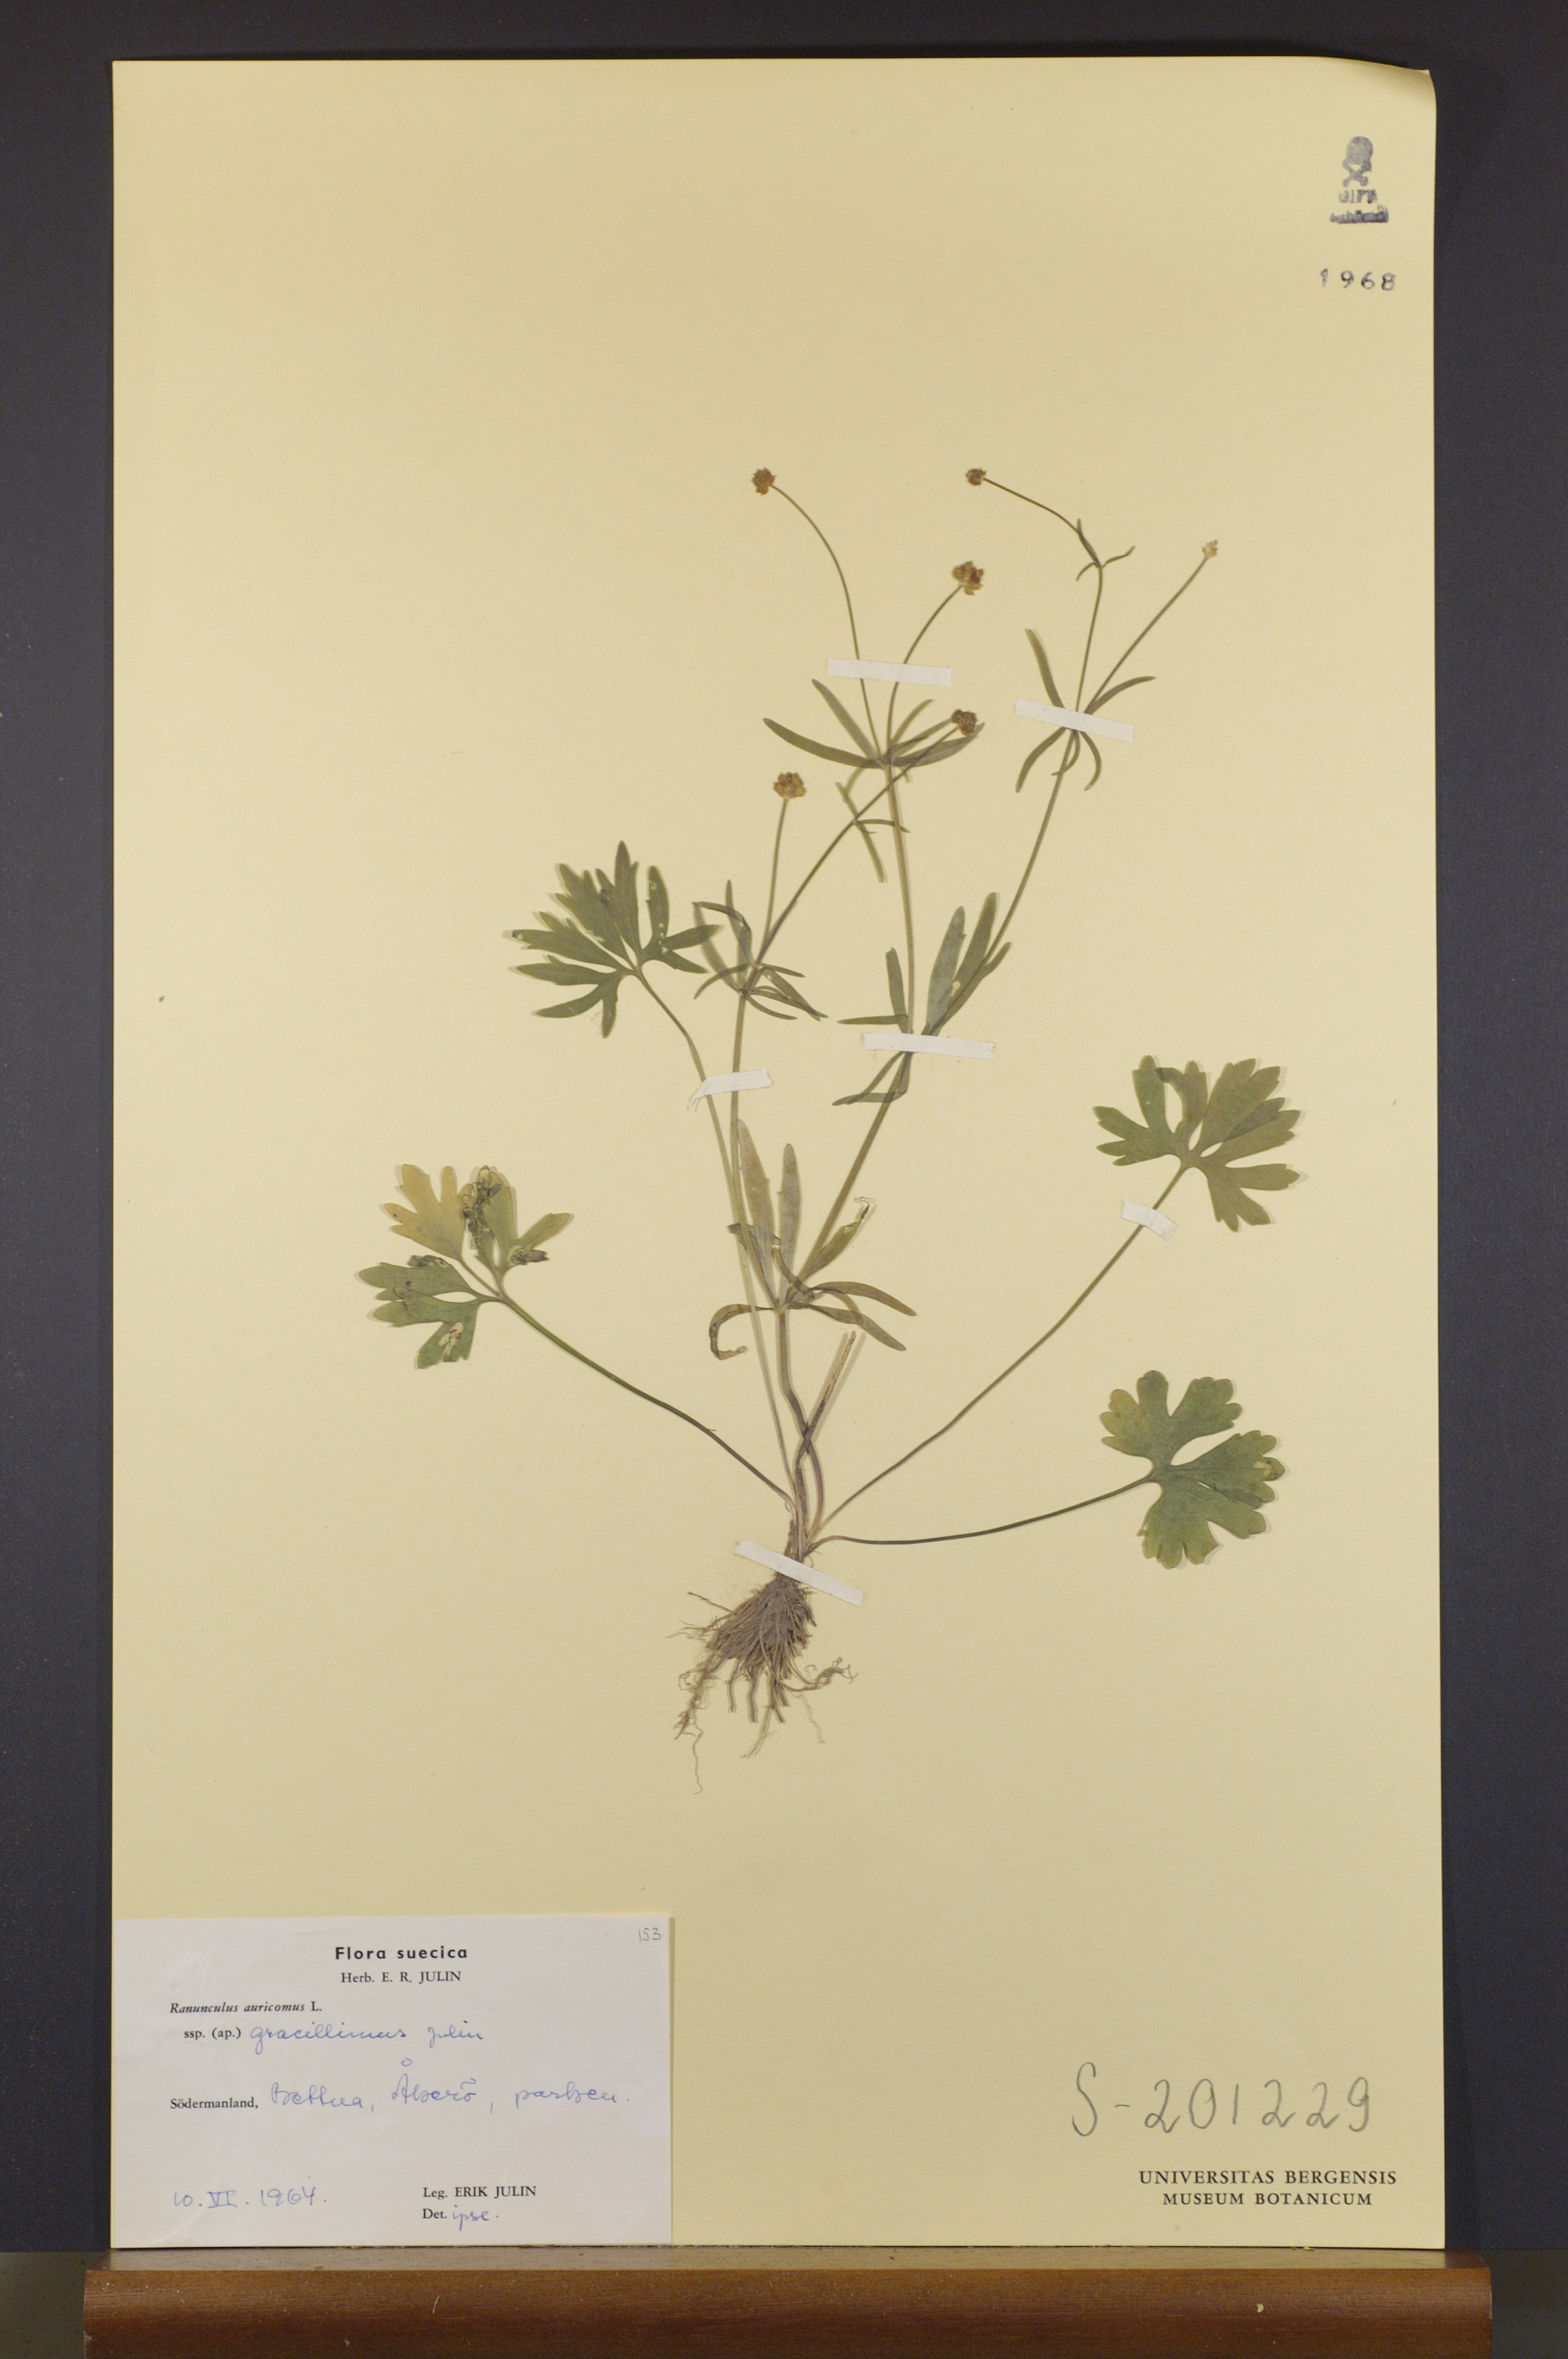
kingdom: Plantae
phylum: Tracheophyta
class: Magnoliopsida
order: Ranunculales
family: Ranunculaceae
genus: Ranunculus
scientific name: Ranunculus gracillimus
